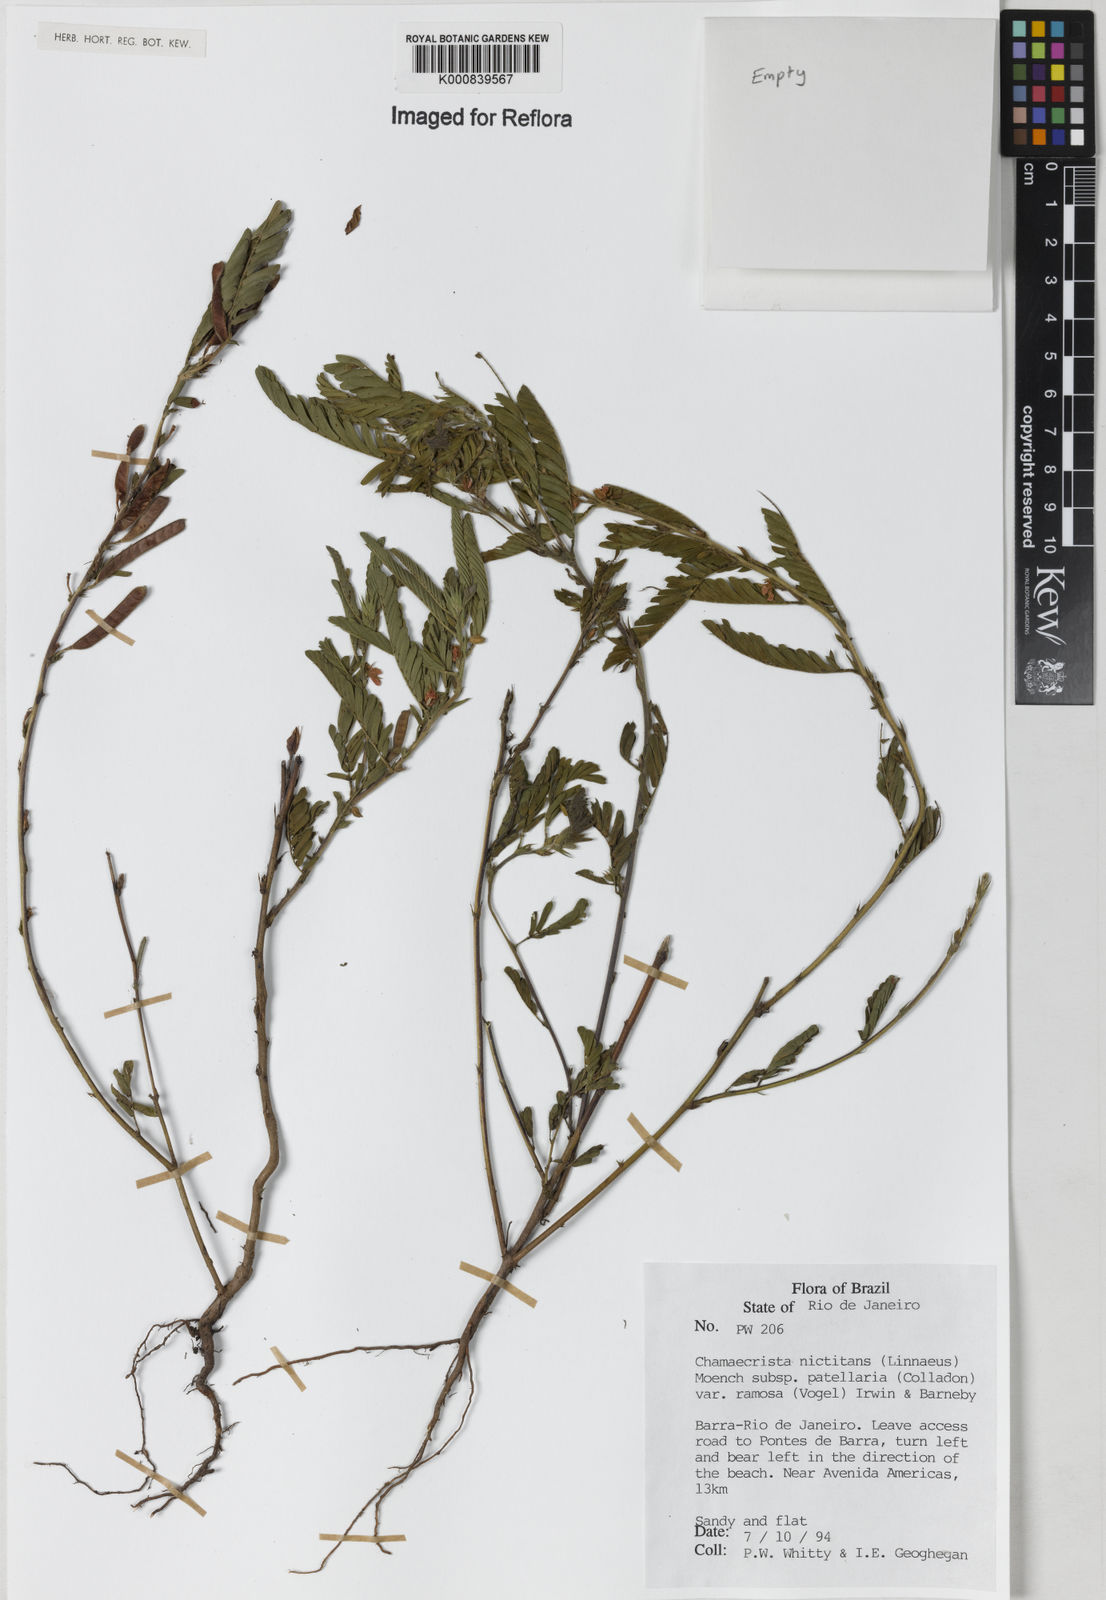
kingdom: Plantae
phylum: Tracheophyta
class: Magnoliopsida
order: Fabales
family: Fabaceae
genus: Chamaecrista
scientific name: Chamaecrista nictitans
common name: Sensitive cassia
